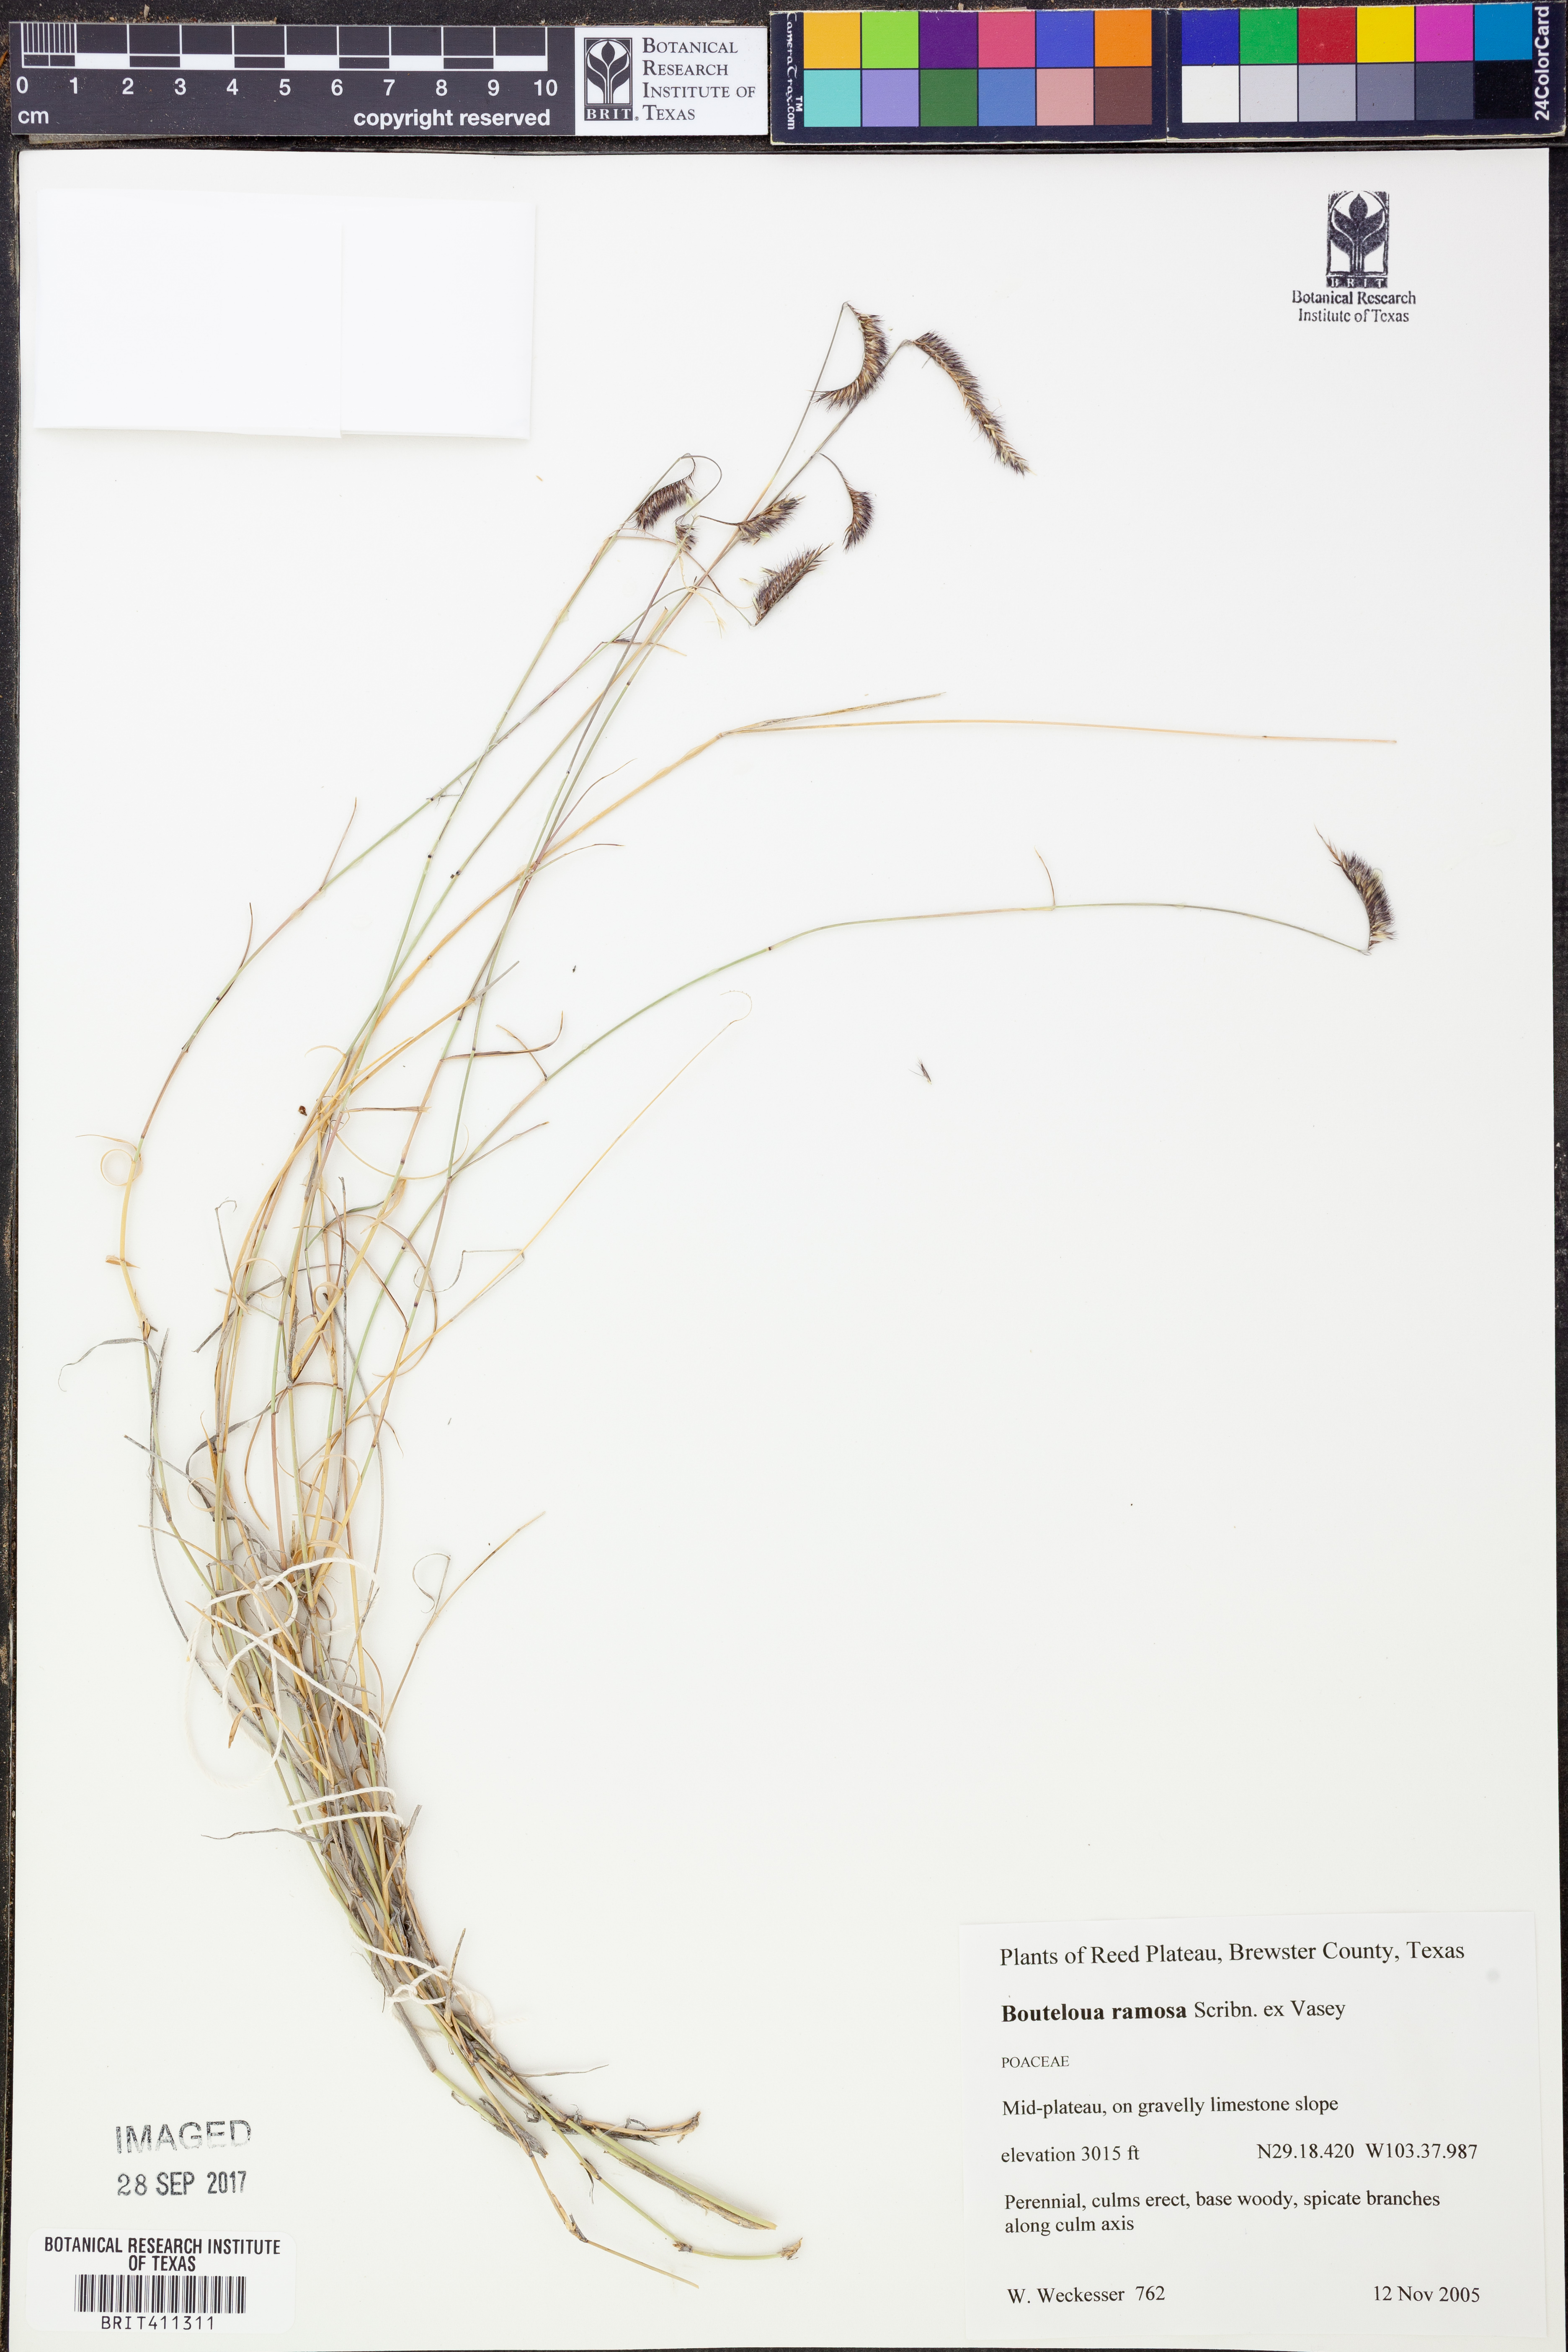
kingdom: Plantae
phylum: Tracheophyta
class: Liliopsida
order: Poales
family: Poaceae
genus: Bouteloua
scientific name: Bouteloua ramosa
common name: Chino grama
